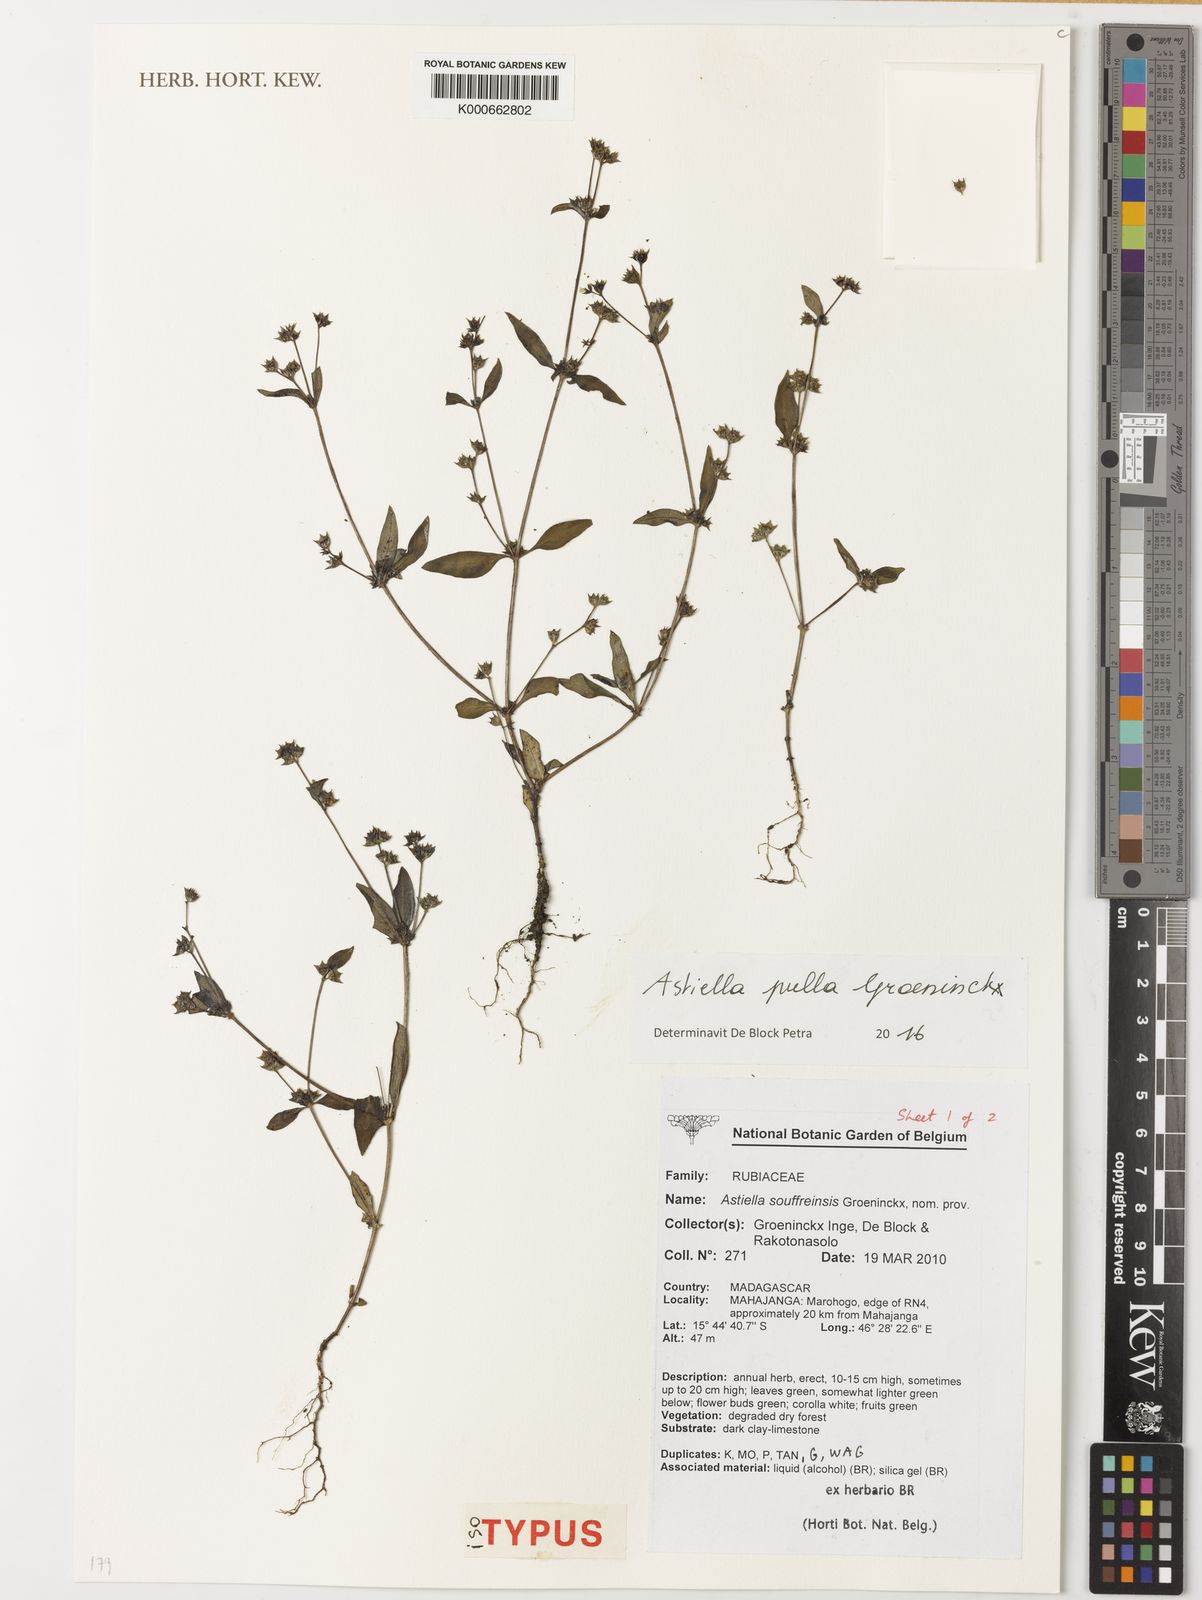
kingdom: Plantae
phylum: Tracheophyta
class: Magnoliopsida
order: Gentianales
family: Rubiaceae
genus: Astiella
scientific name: Astiella pulla
